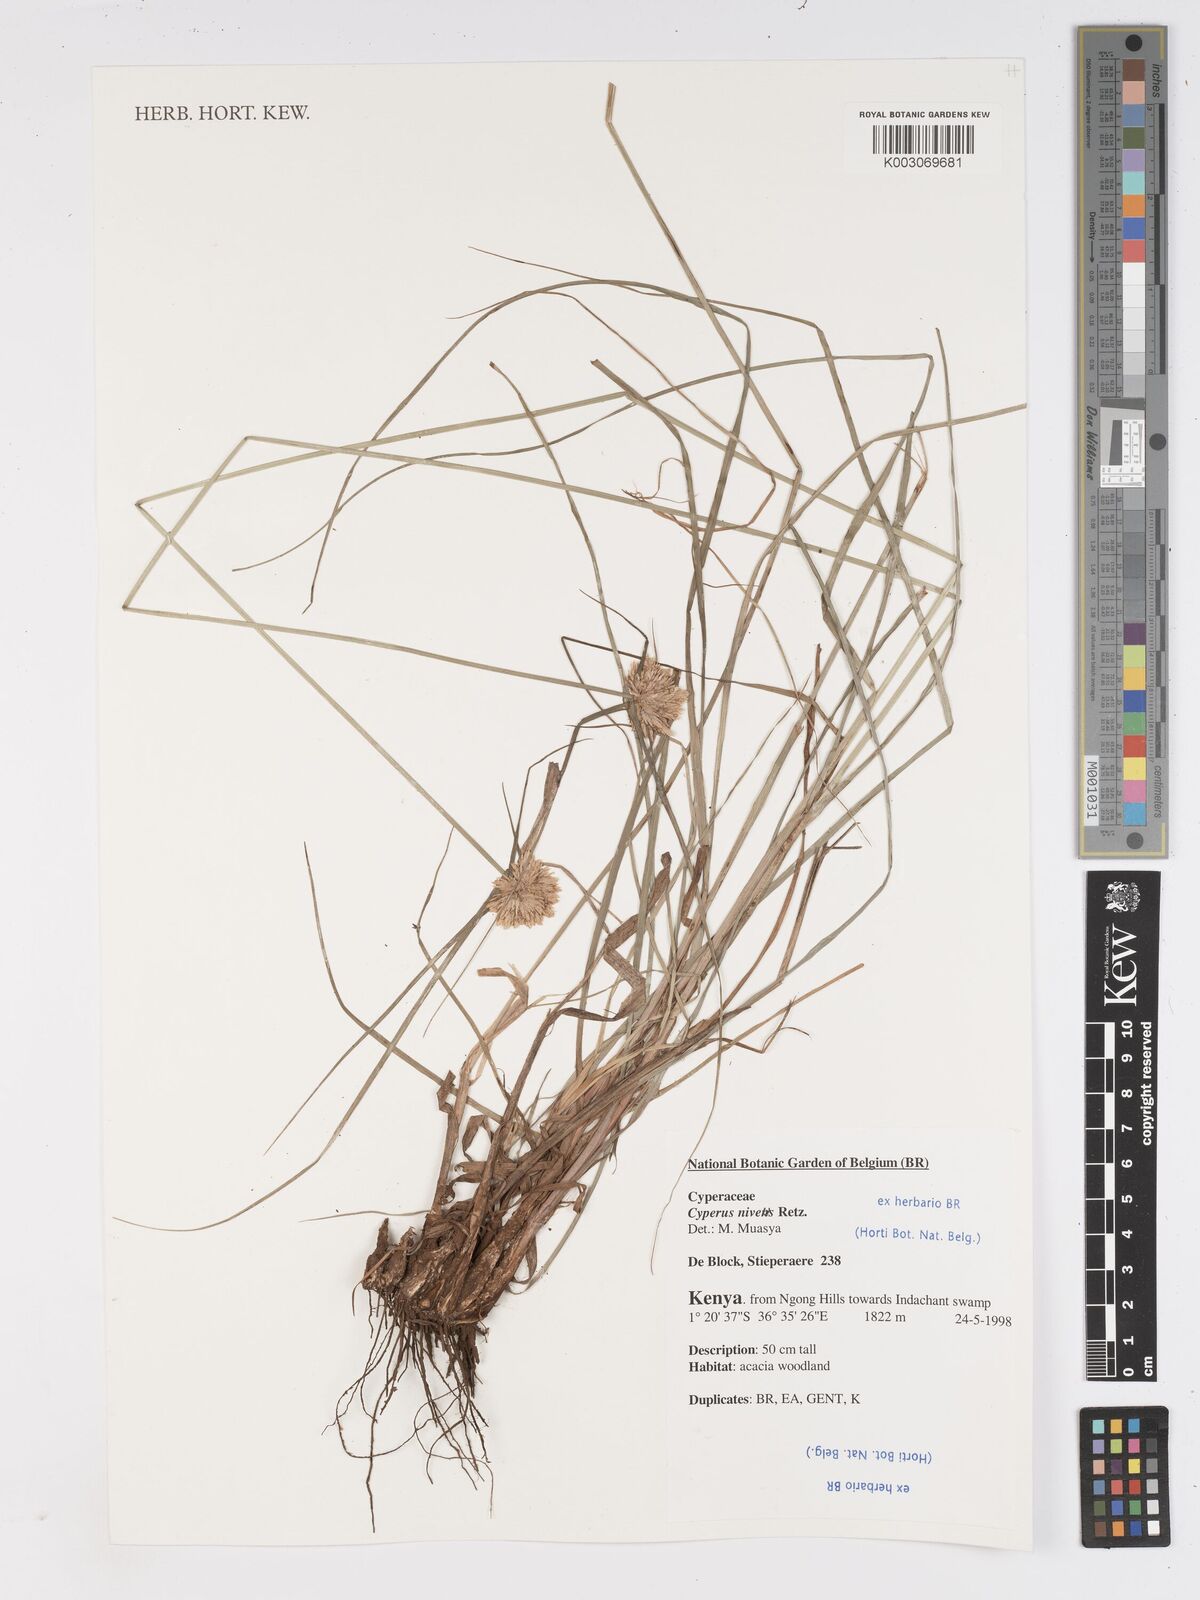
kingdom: Plantae
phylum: Tracheophyta
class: Liliopsida
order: Poales
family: Cyperaceae
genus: Cyperus
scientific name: Cyperus niveus
